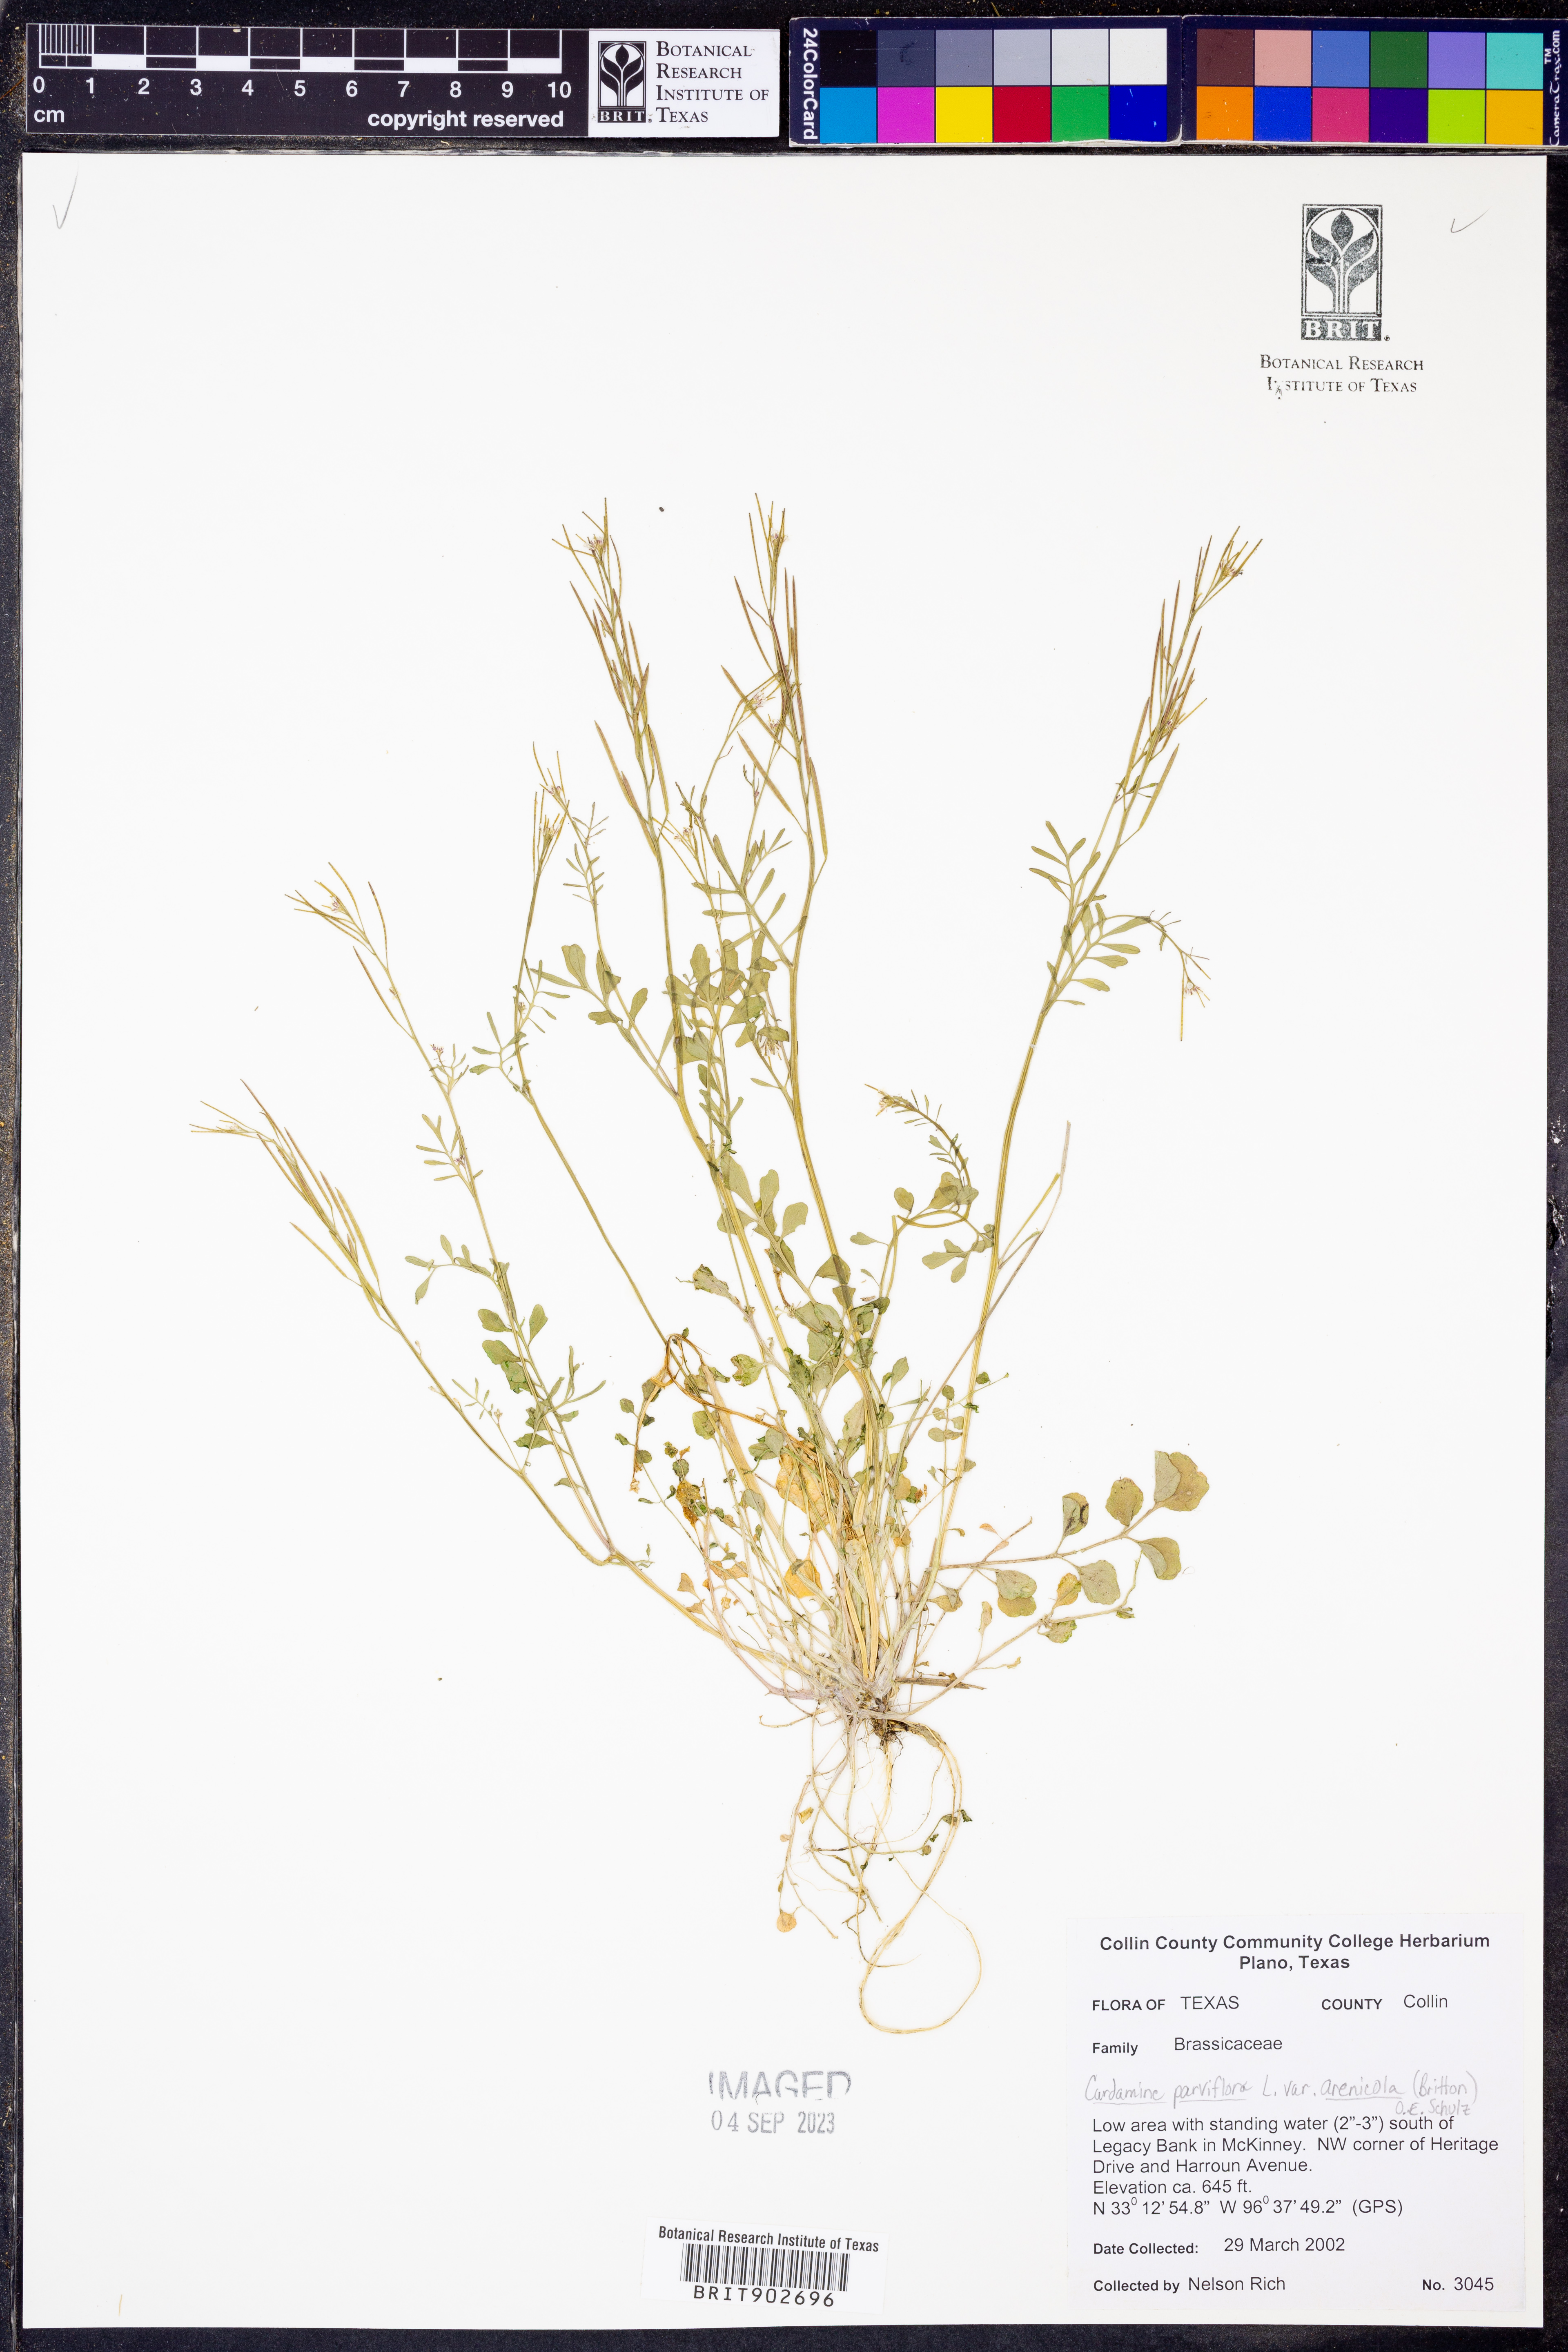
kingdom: Plantae
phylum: Tracheophyta
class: Magnoliopsida
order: Brassicales
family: Brassicaceae
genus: Cardamine
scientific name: Cardamine parviflora
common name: Sand bittercress
